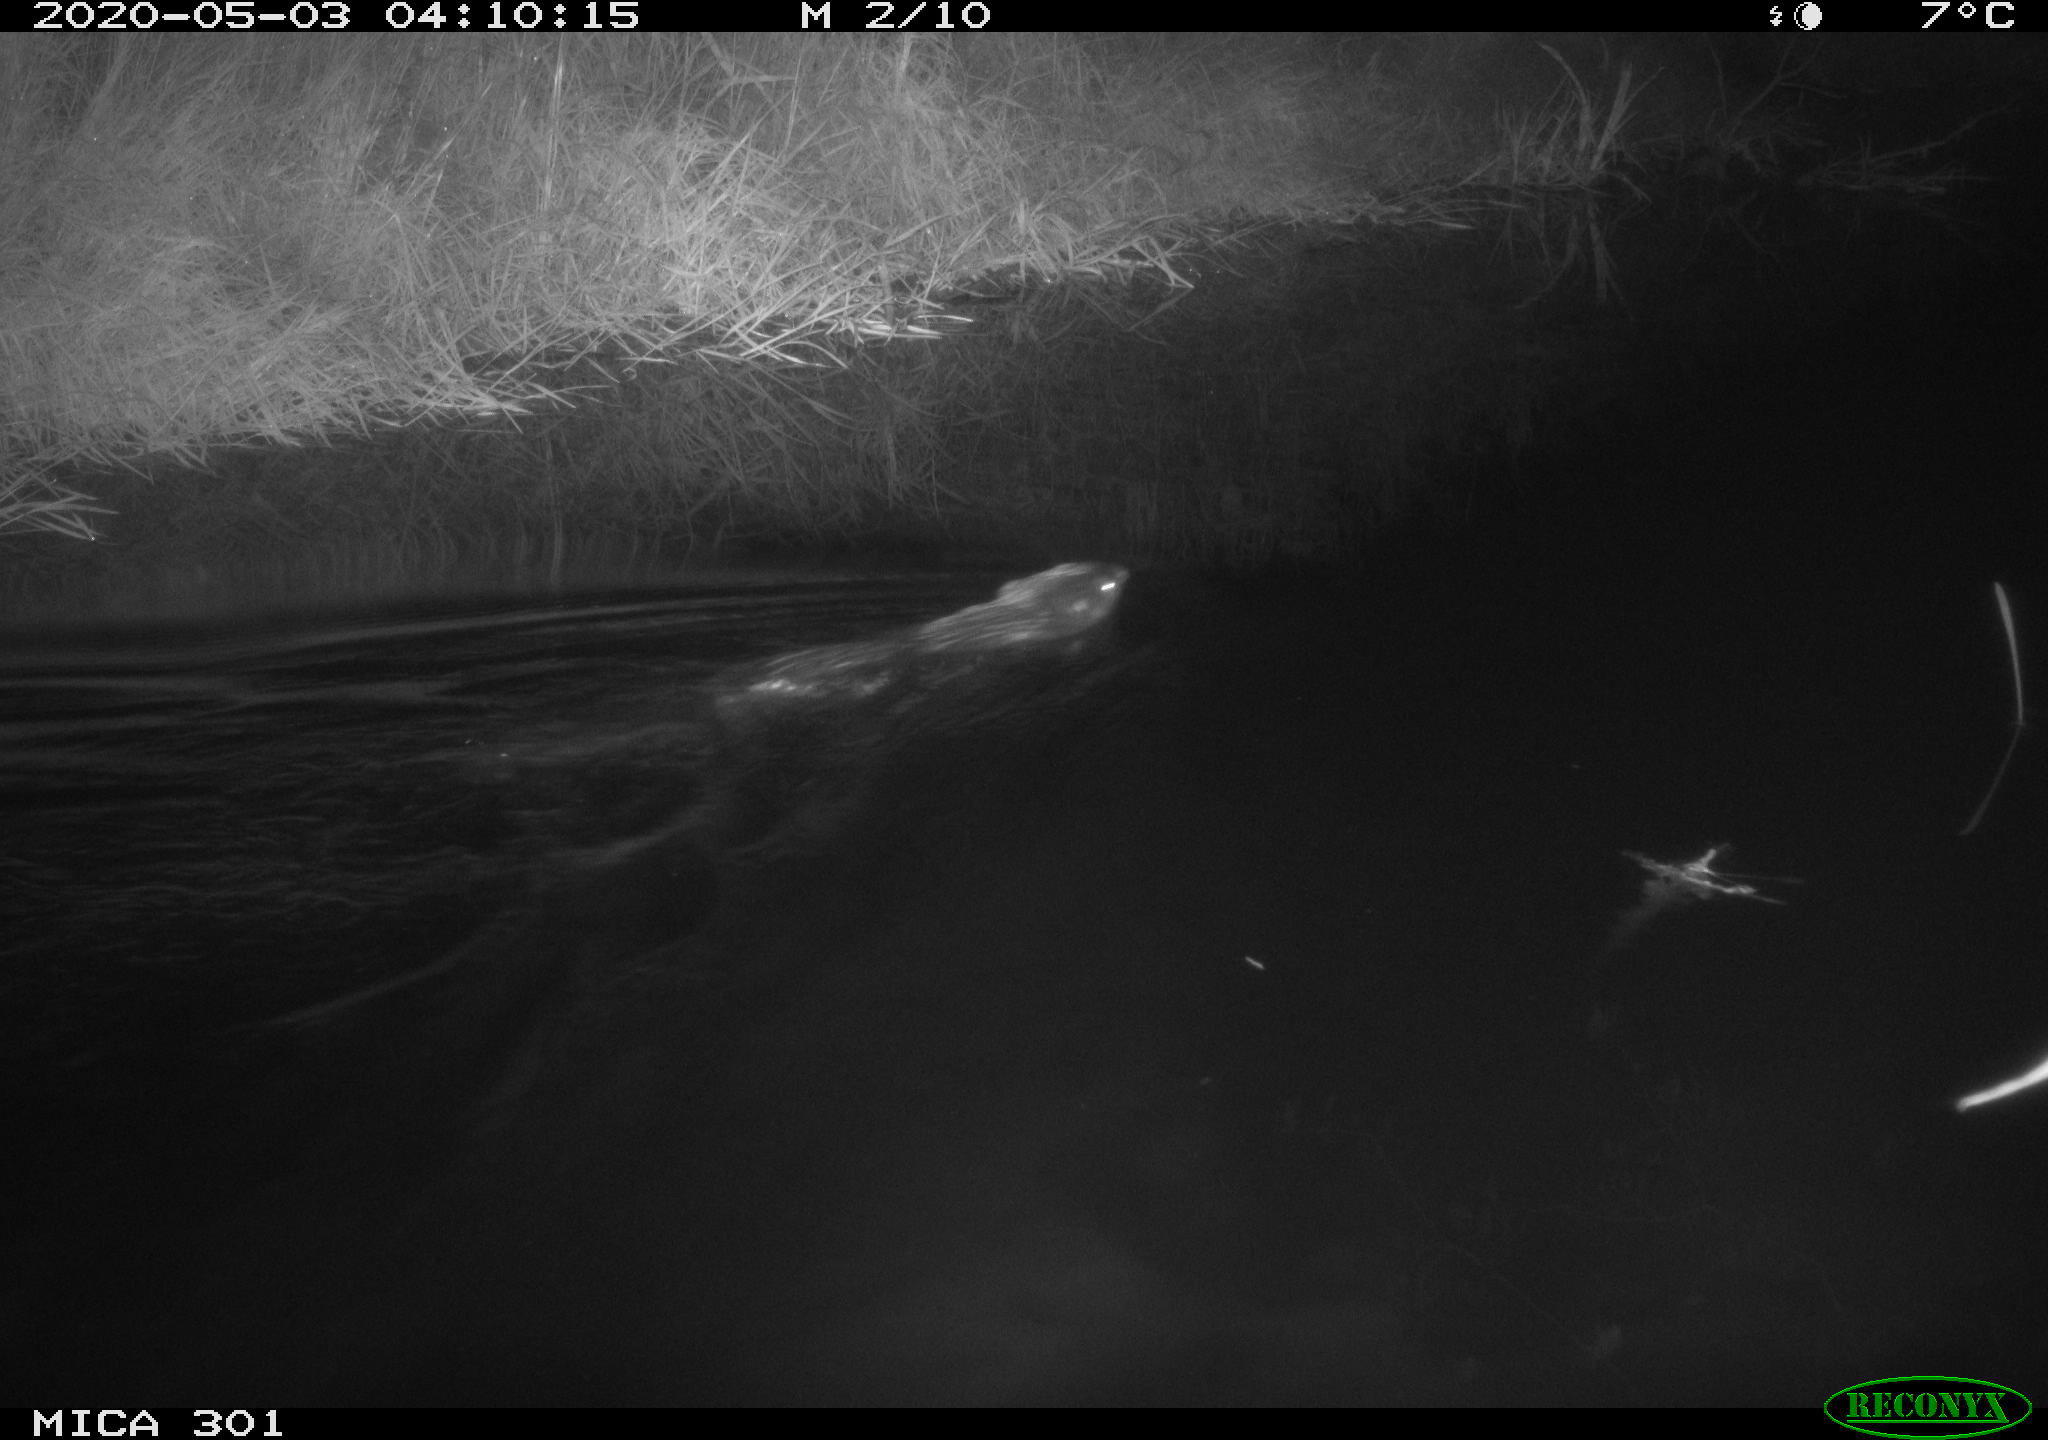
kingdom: Animalia
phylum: Chordata
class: Mammalia
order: Rodentia
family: Castoridae
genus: Castor
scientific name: Castor fiber
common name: Eurasian beaver
